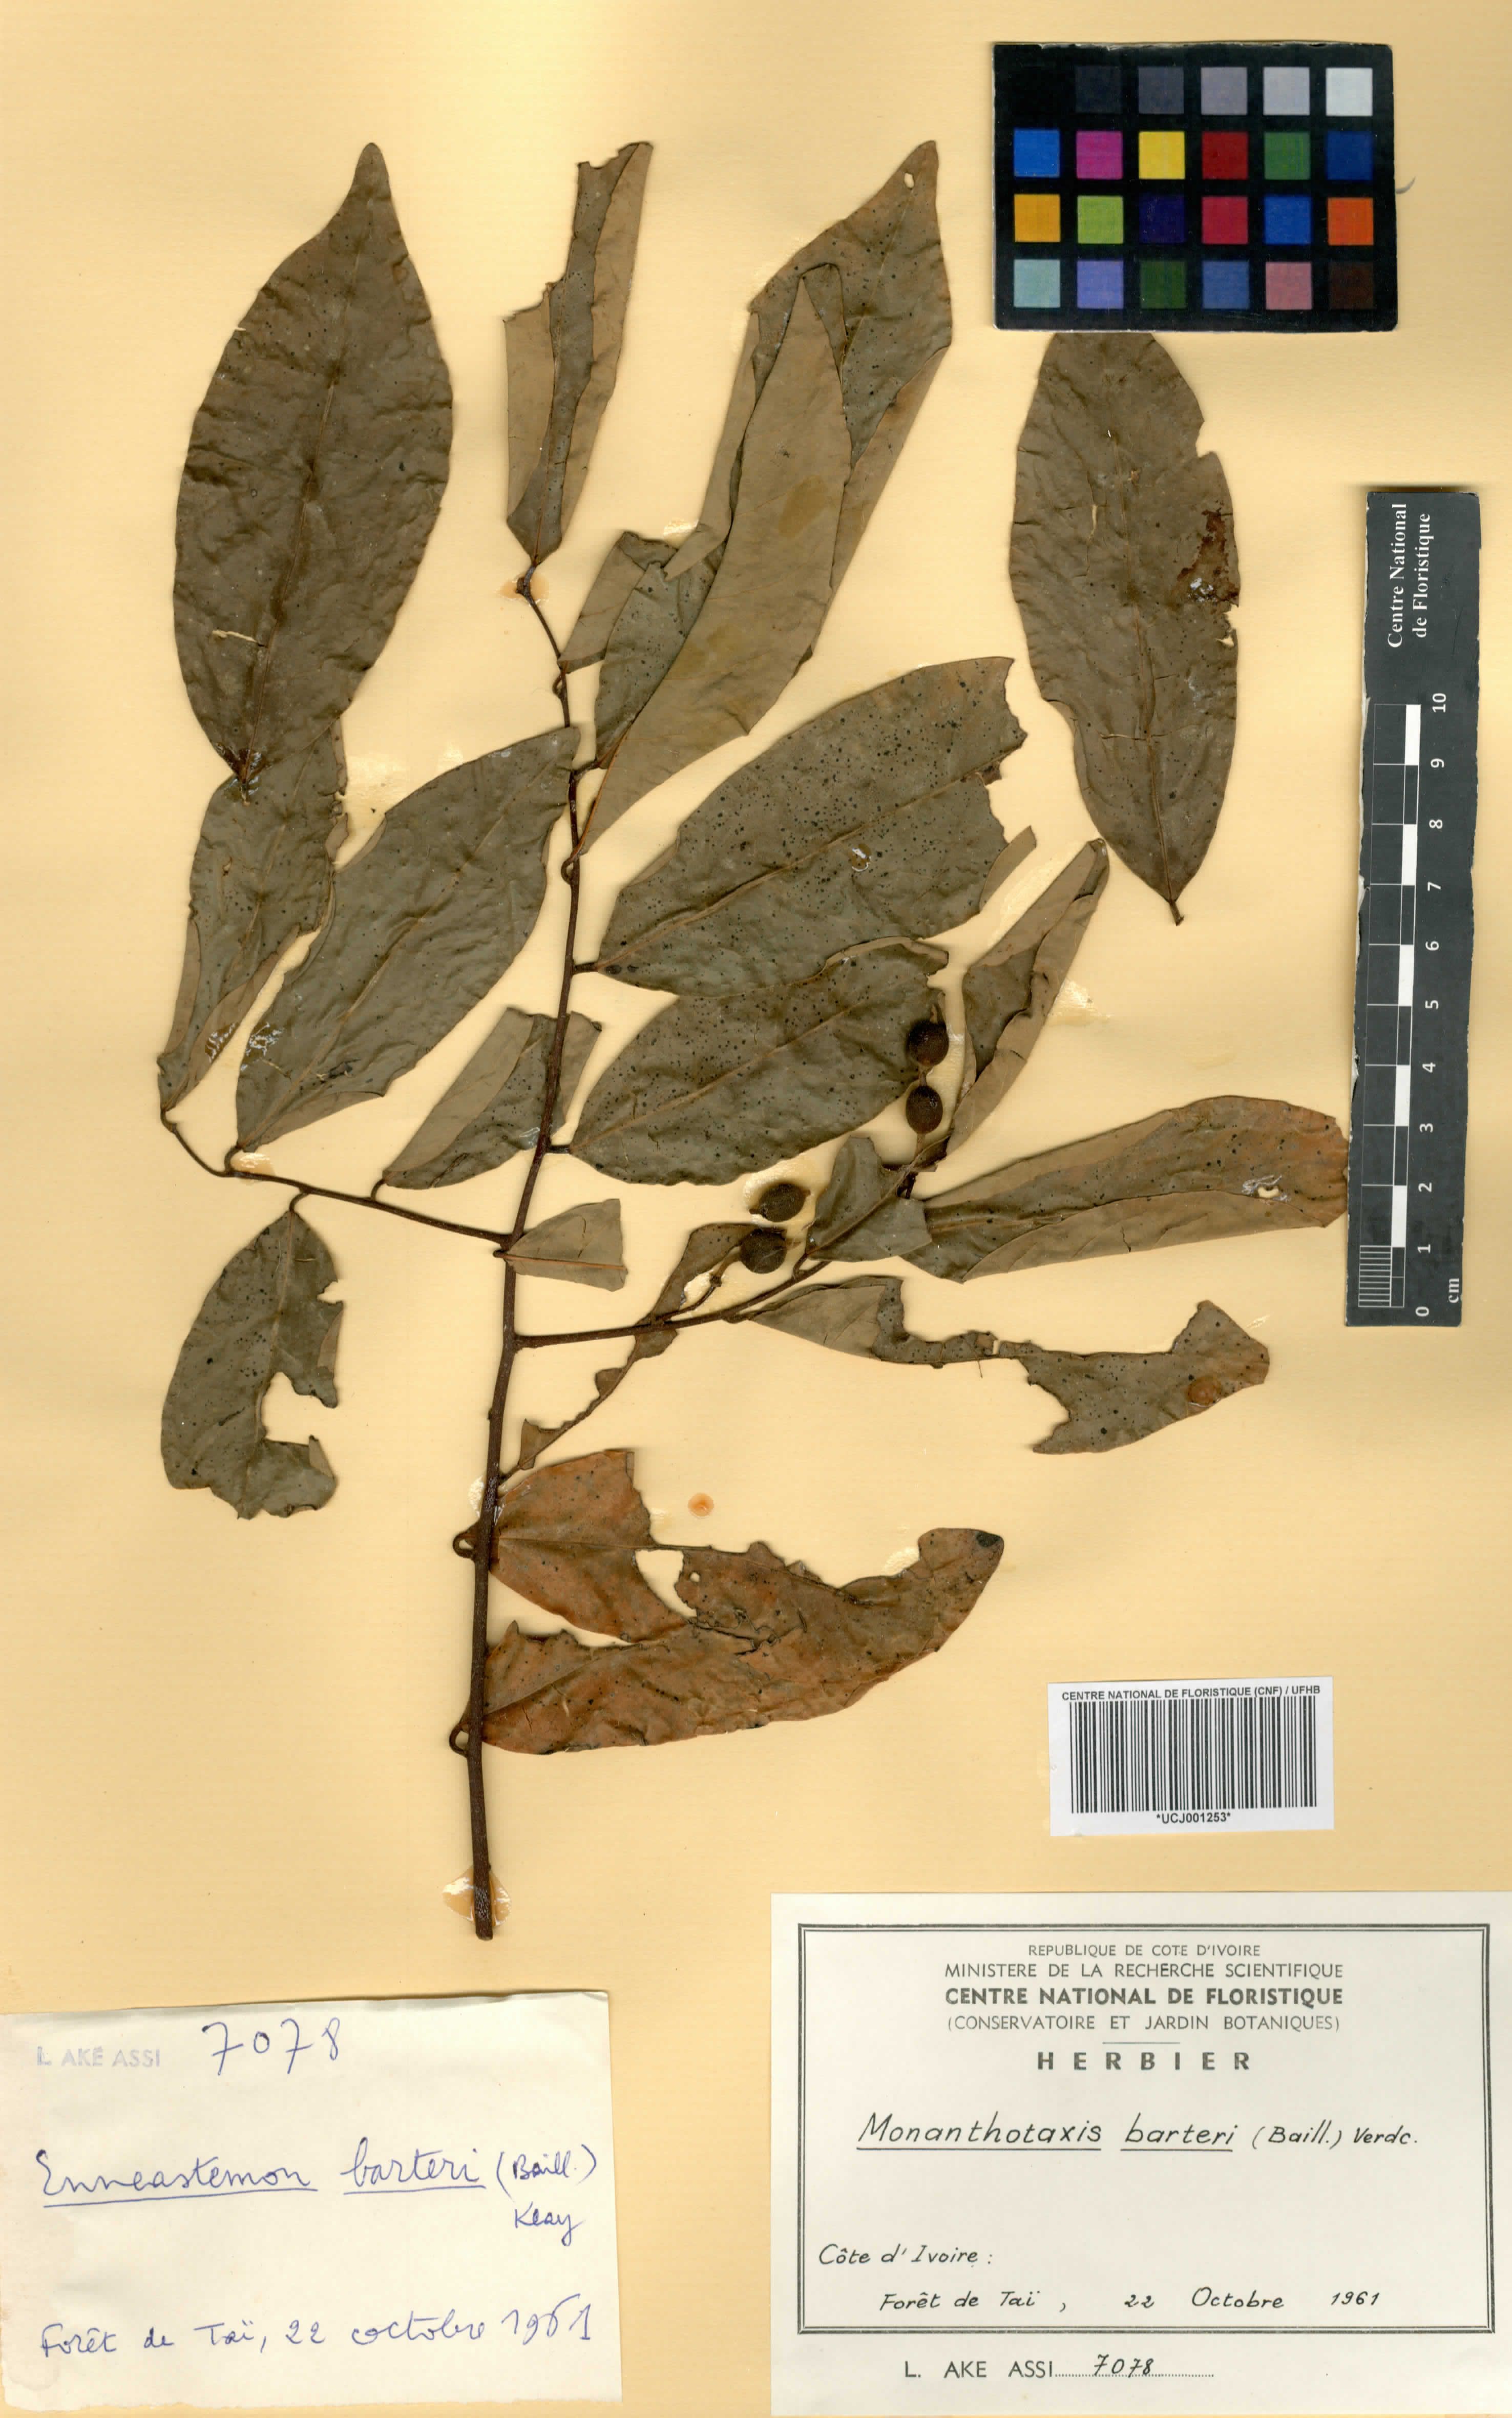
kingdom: Plantae
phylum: Tracheophyta
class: Magnoliopsida
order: Magnoliales
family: Annonaceae
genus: Monanthotaxis
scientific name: Monanthotaxis barteri
